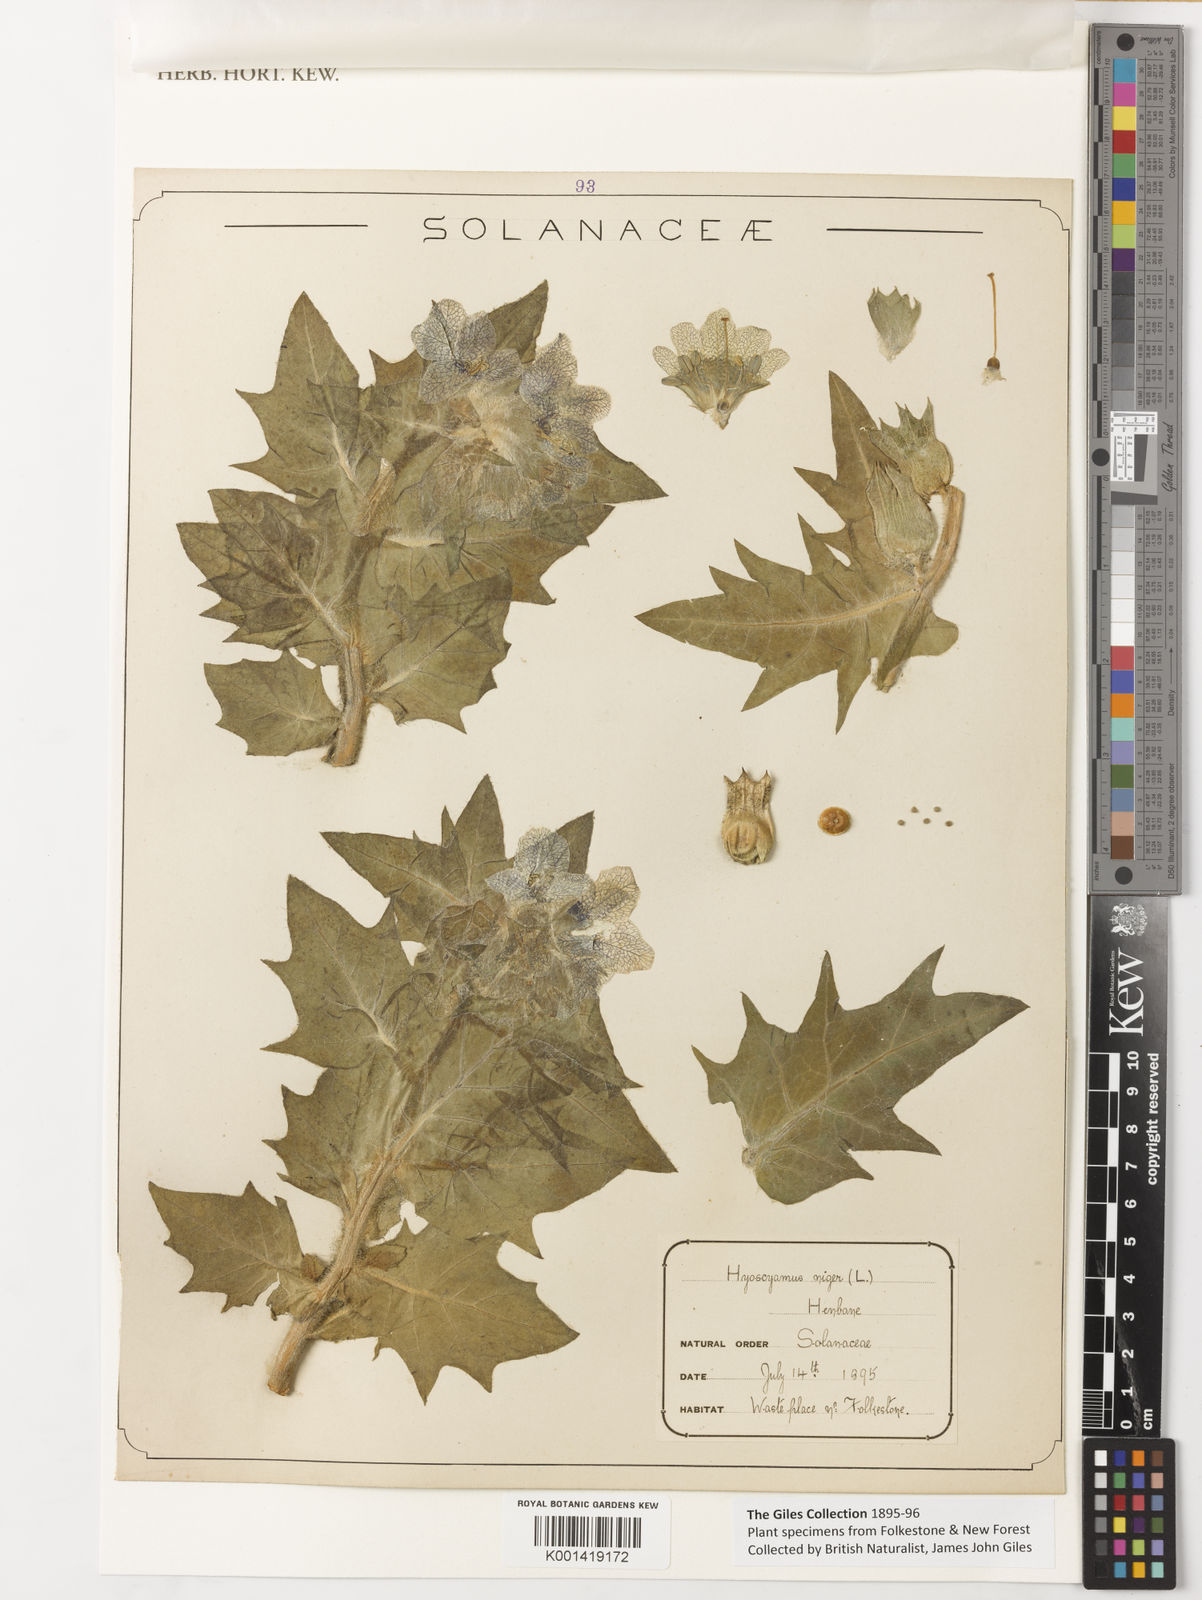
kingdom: Plantae
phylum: Tracheophyta
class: Magnoliopsida
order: Solanales
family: Solanaceae
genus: Hyoscyamus
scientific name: Hyoscyamus niger
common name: Henbane
